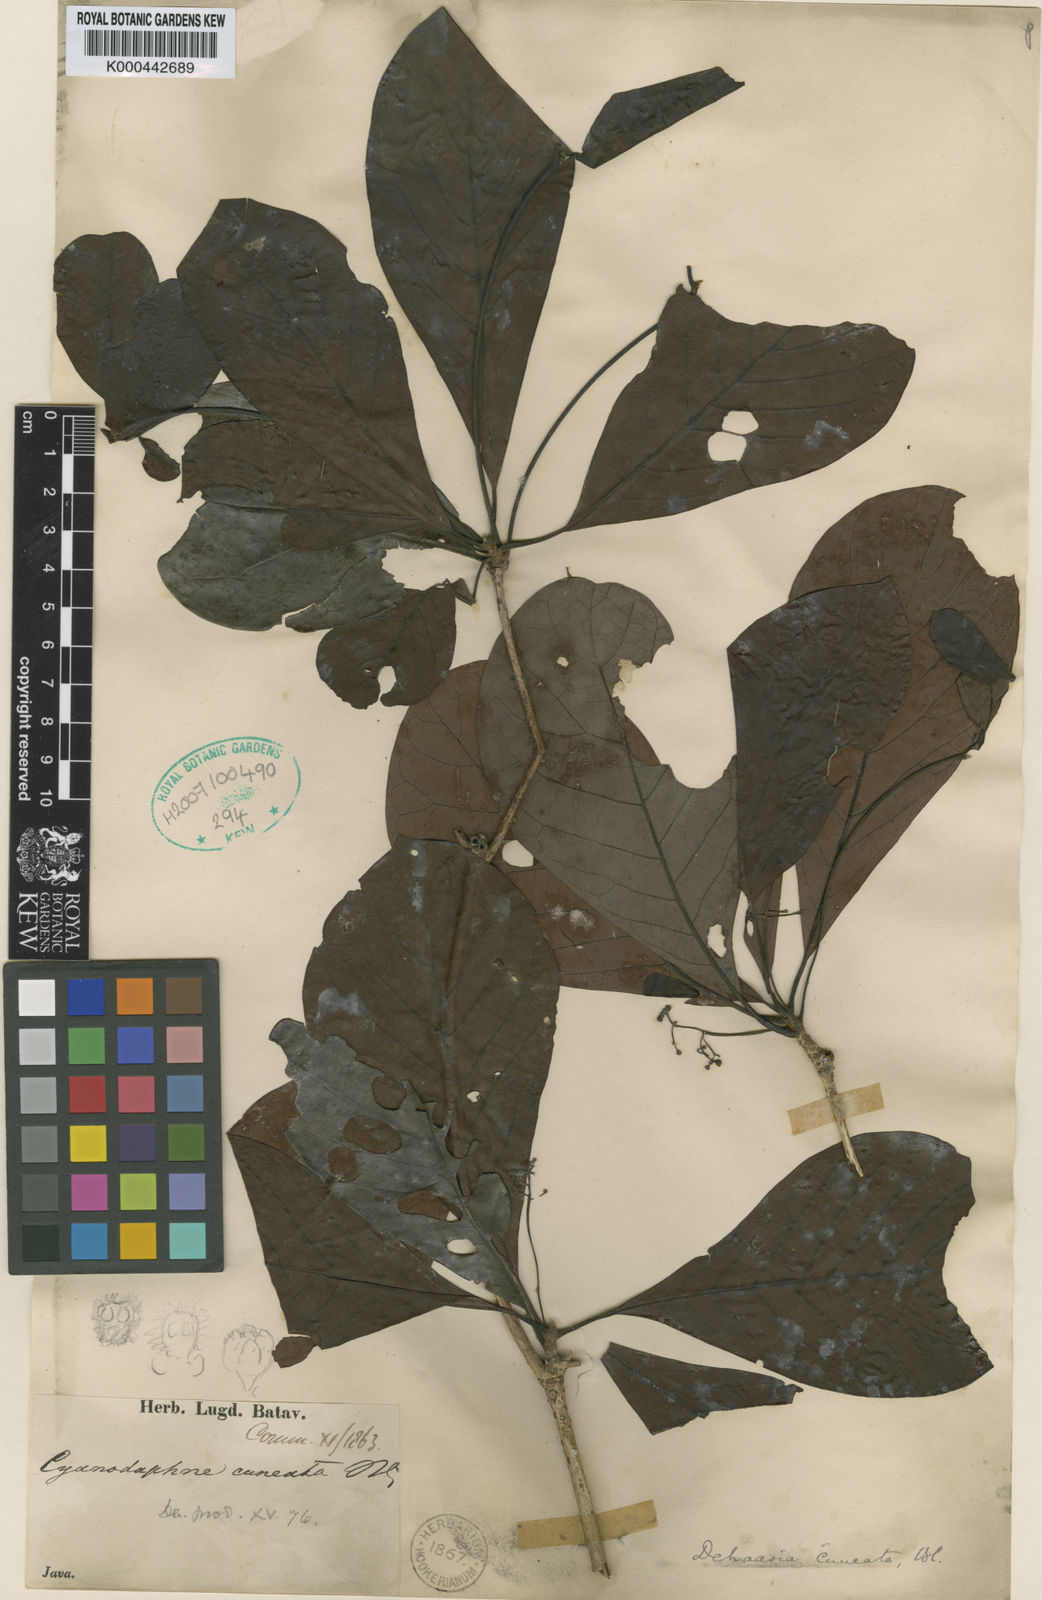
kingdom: Plantae
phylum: Tracheophyta
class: Magnoliopsida
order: Laurales
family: Lauraceae
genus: Dehaasia
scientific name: Dehaasia cuneata
